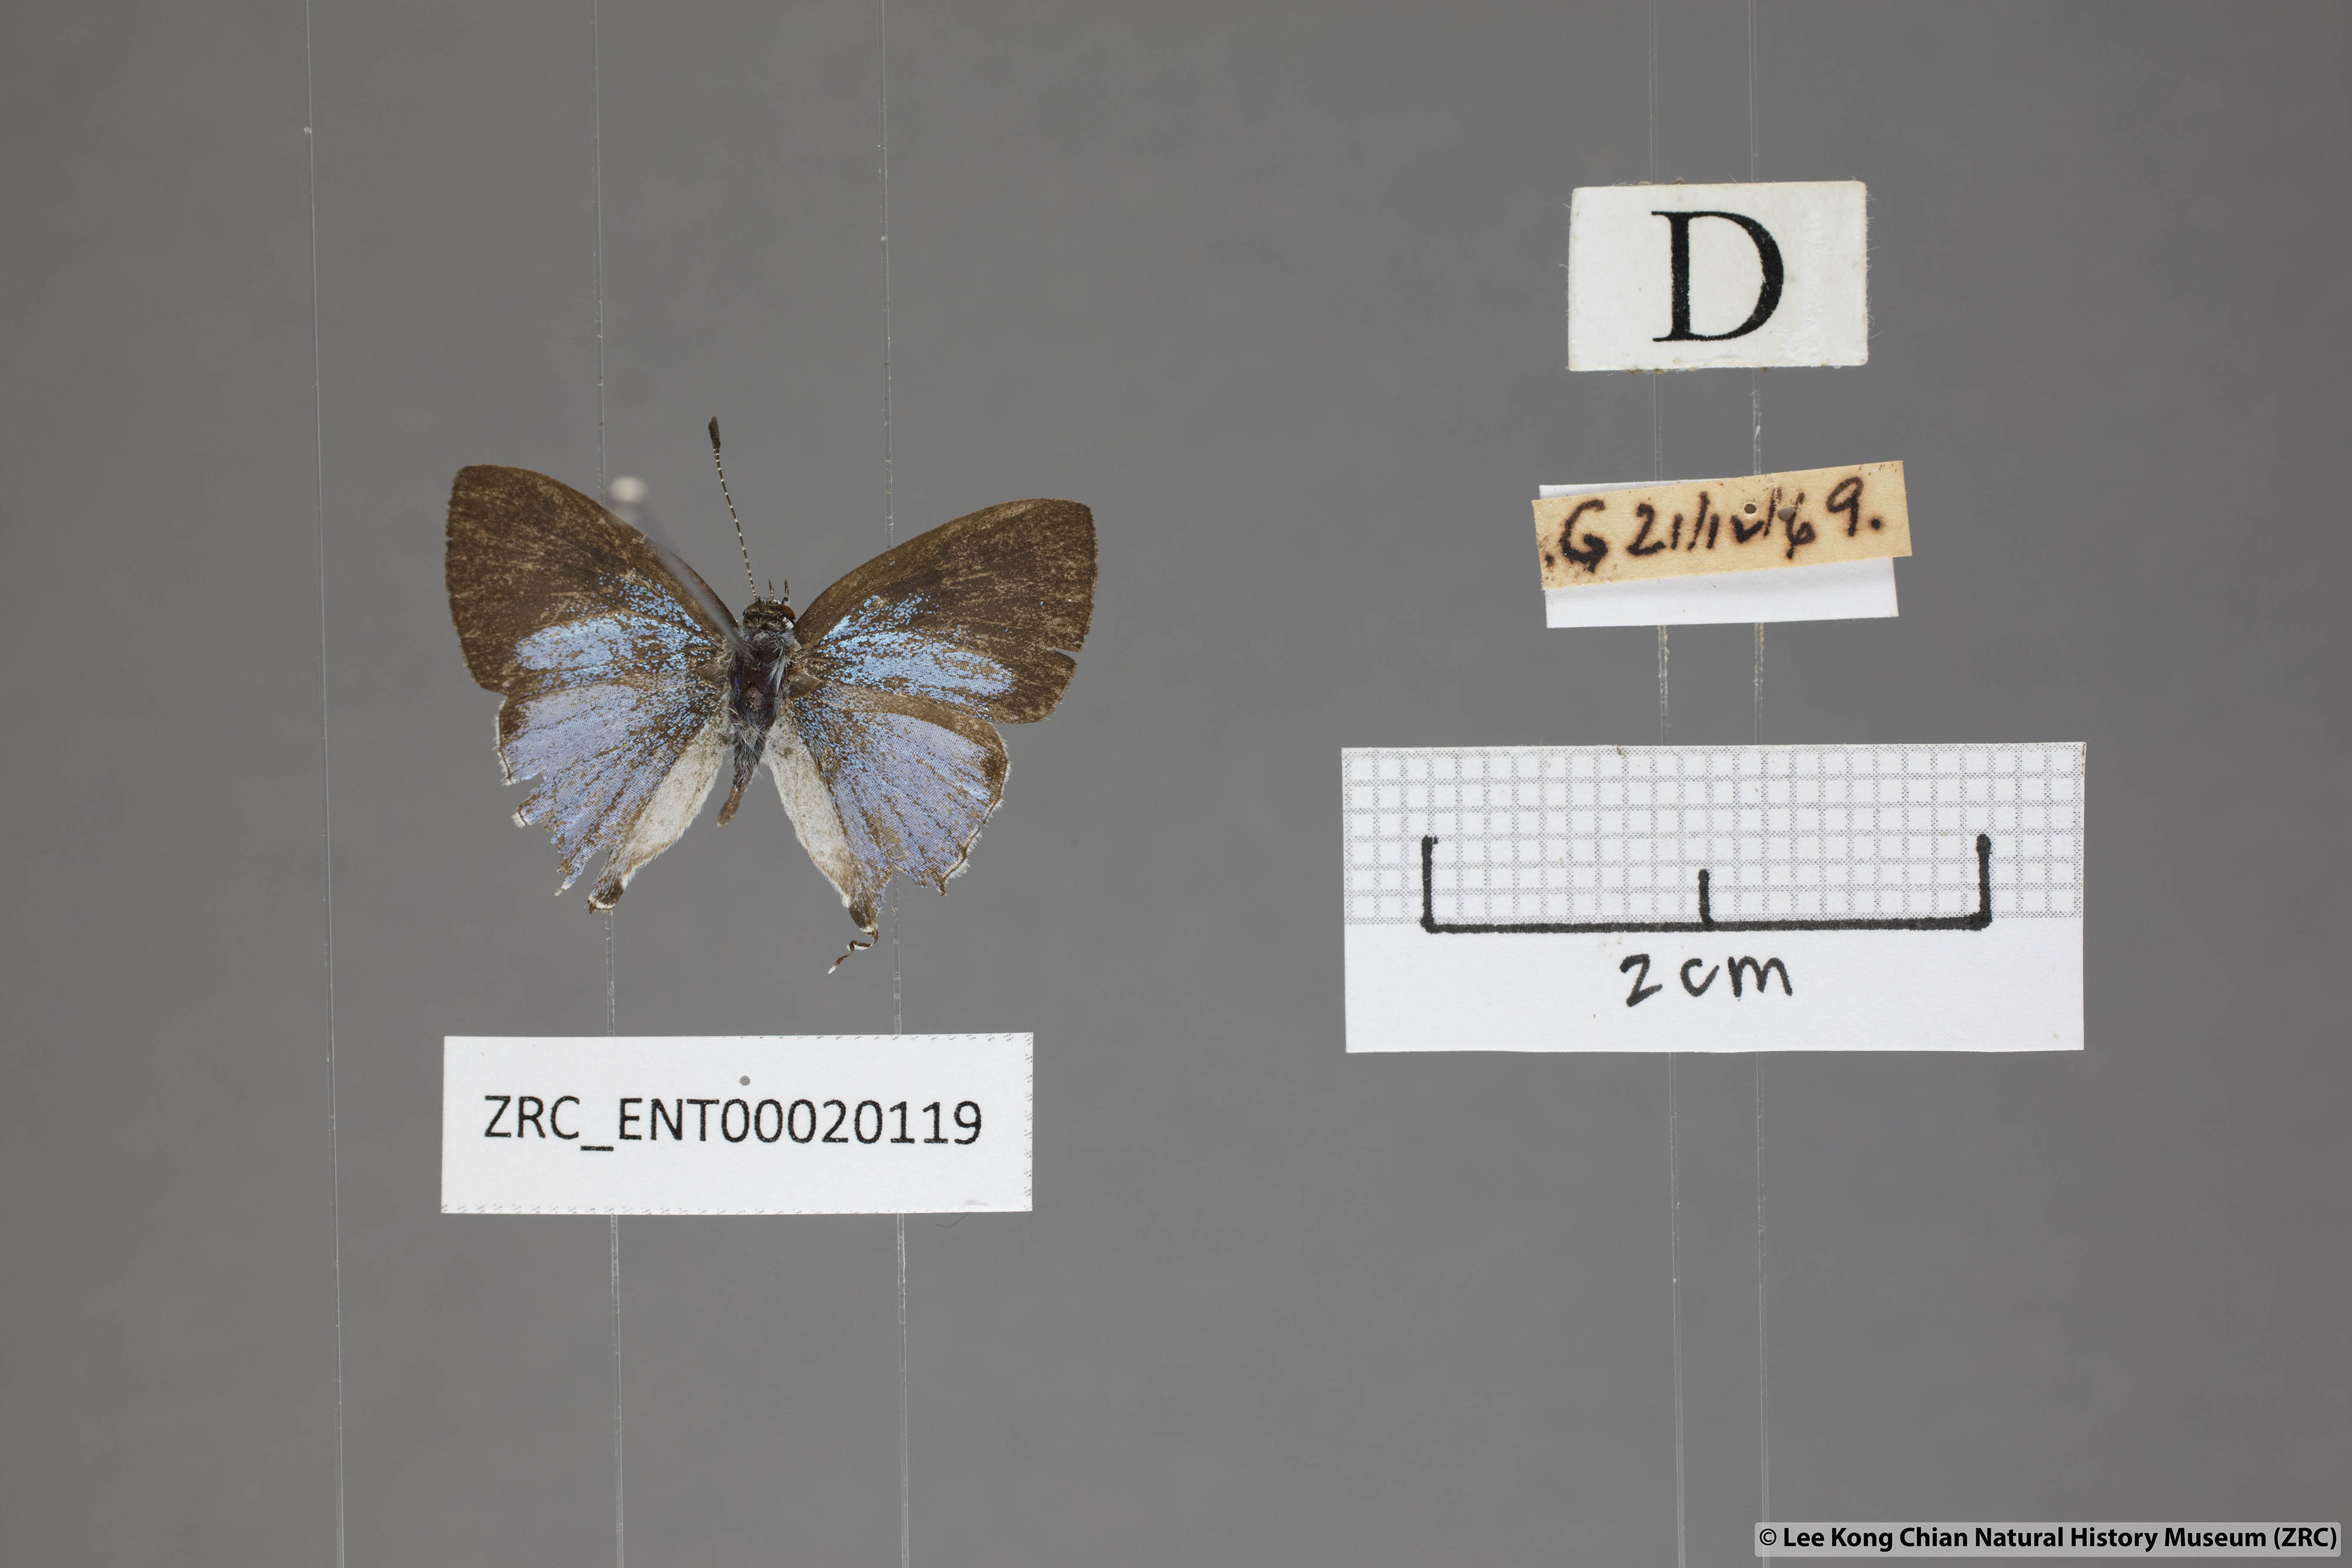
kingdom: Animalia
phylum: Arthropoda
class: Insecta
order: Lepidoptera
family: Lycaenidae
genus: Chliaria
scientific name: Chliaria othona
